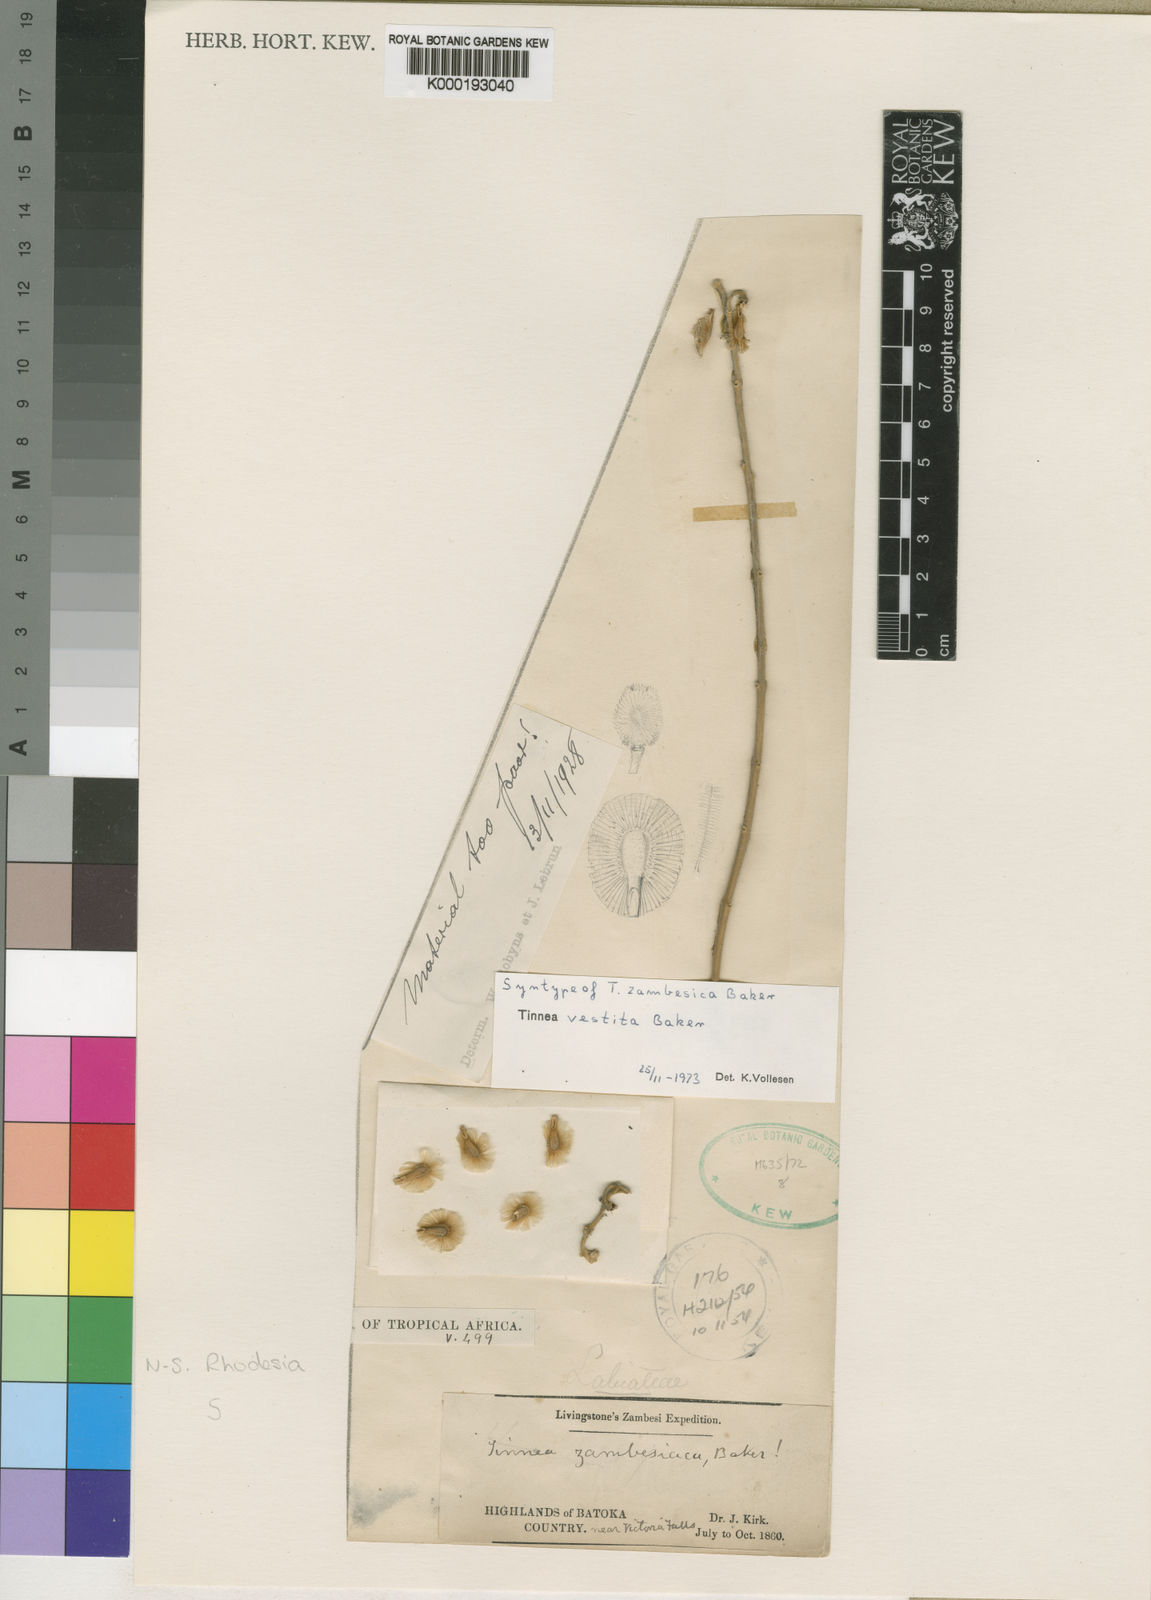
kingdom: Plantae
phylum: Tracheophyta
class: Magnoliopsida
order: Lamiales
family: Lamiaceae
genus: Tinnea
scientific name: Tinnea vestita
